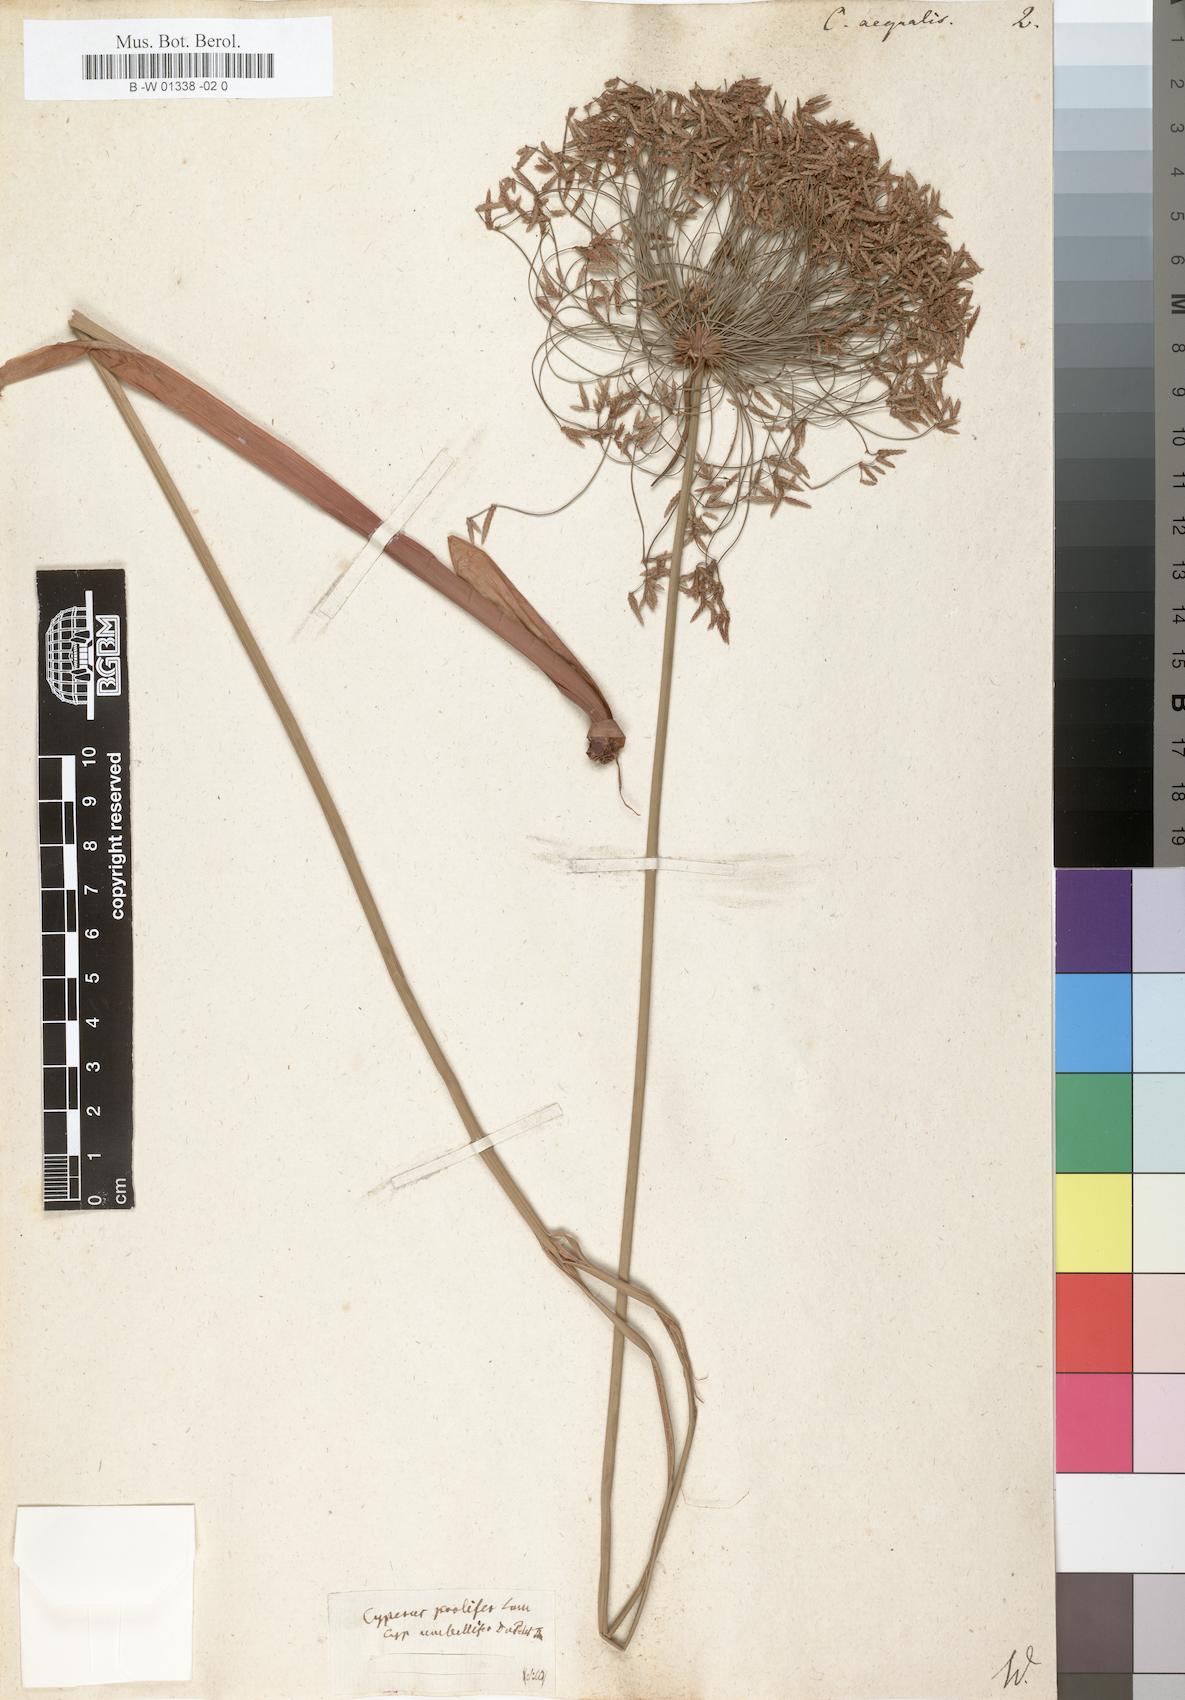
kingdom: Plantae
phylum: Tracheophyta
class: Liliopsida
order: Poales
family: Cyperaceae
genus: Cyperus
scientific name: Cyperus prolifer
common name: Miniature flatsedge
